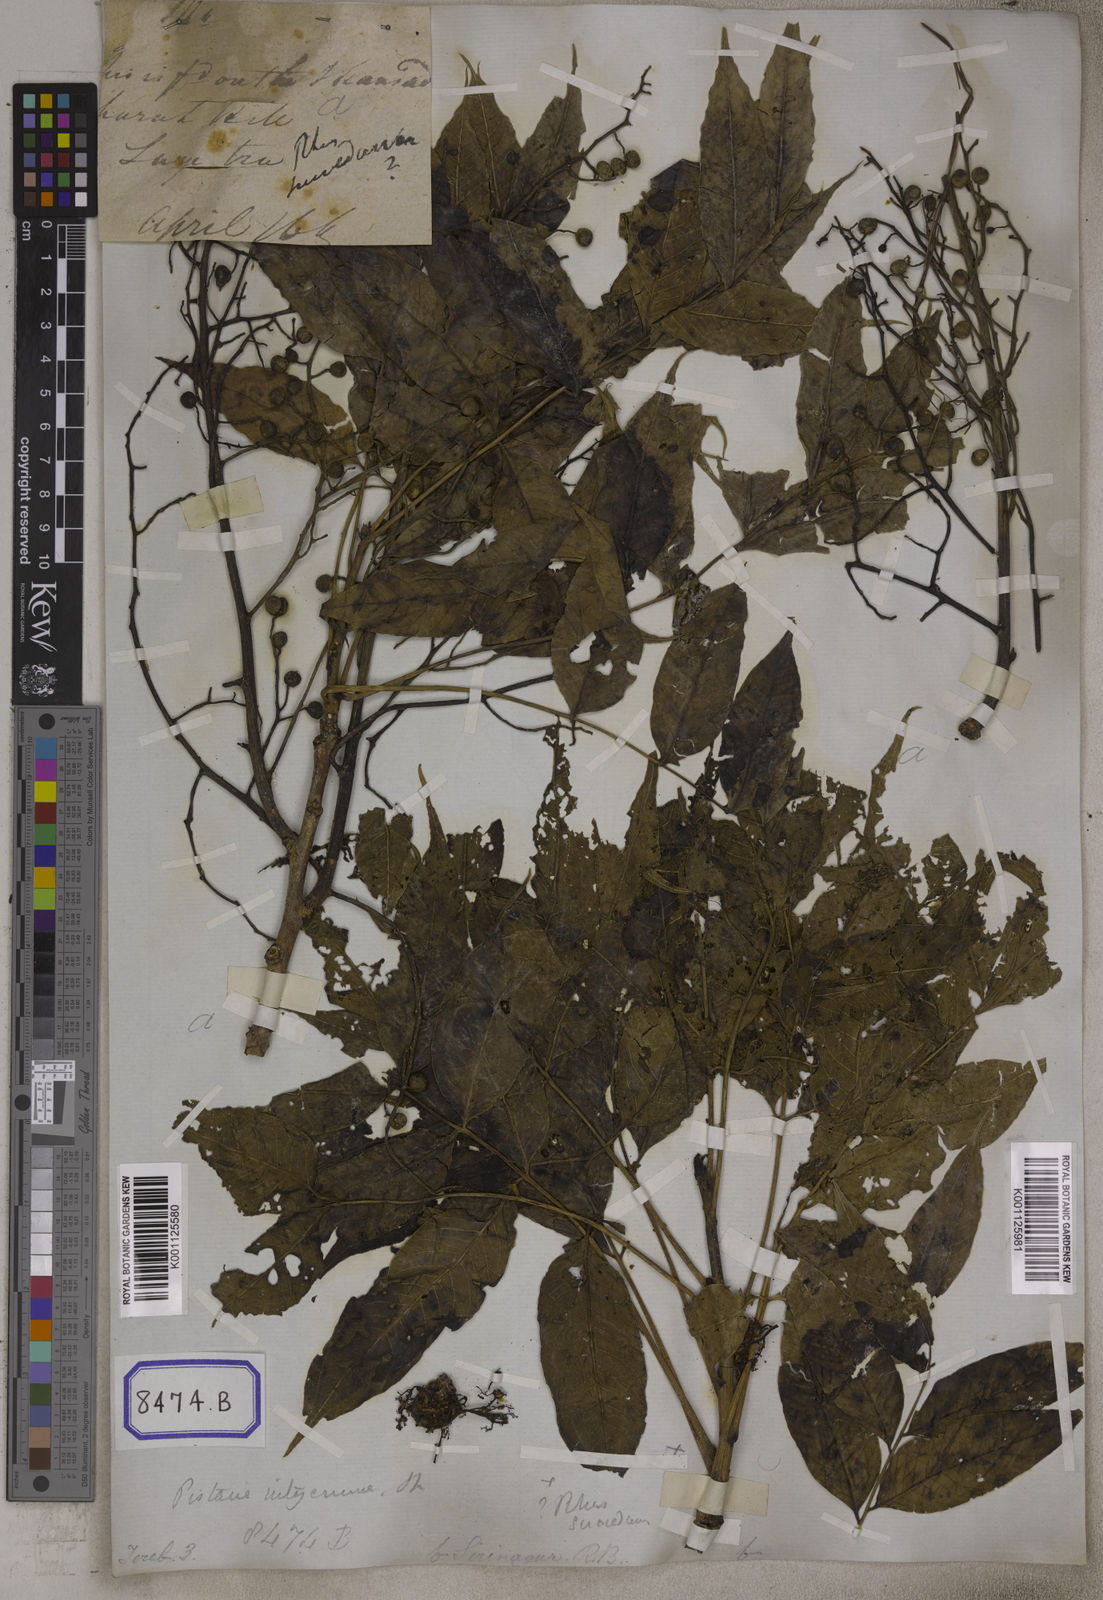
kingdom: Plantae
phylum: Tracheophyta
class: Magnoliopsida
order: Sapindales
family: Anacardiaceae
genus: Pistacia
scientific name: Pistacia chinensis
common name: Chinese pistache
